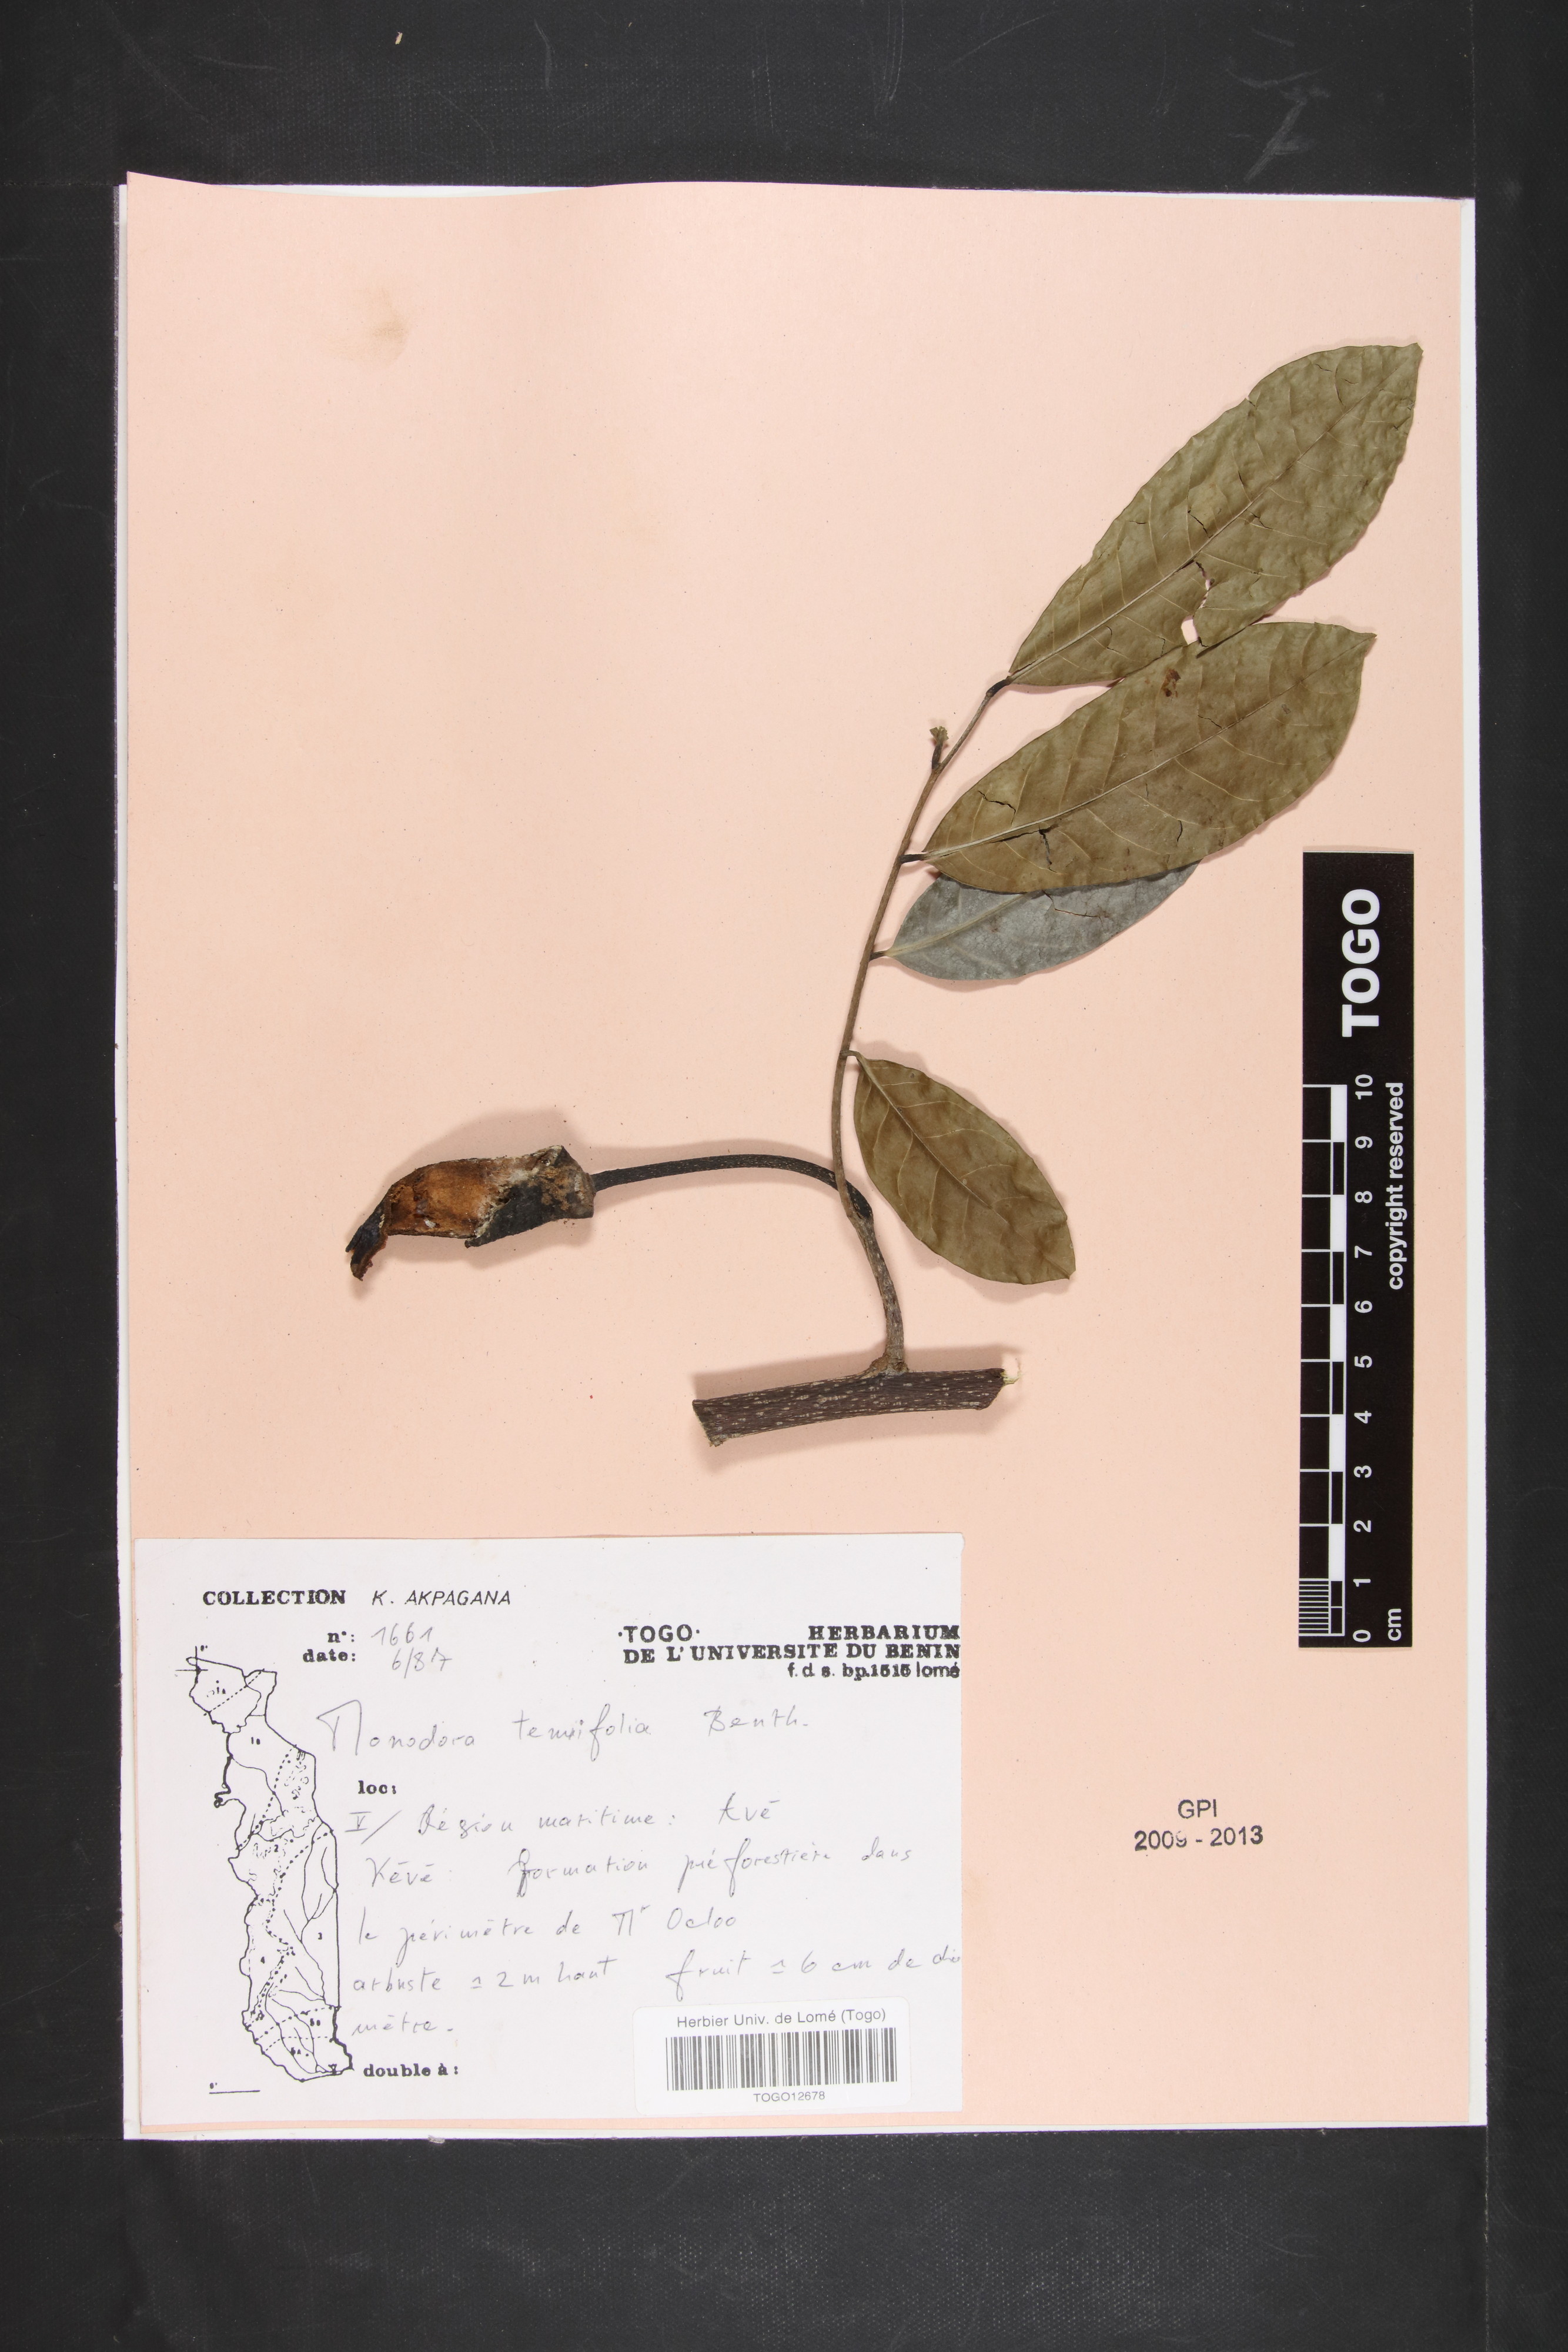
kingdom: Plantae
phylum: Tracheophyta
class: Magnoliopsida
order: Magnoliales
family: Annonaceae
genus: Monodora
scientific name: Monodora tenuifolia
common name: Orchidtree
